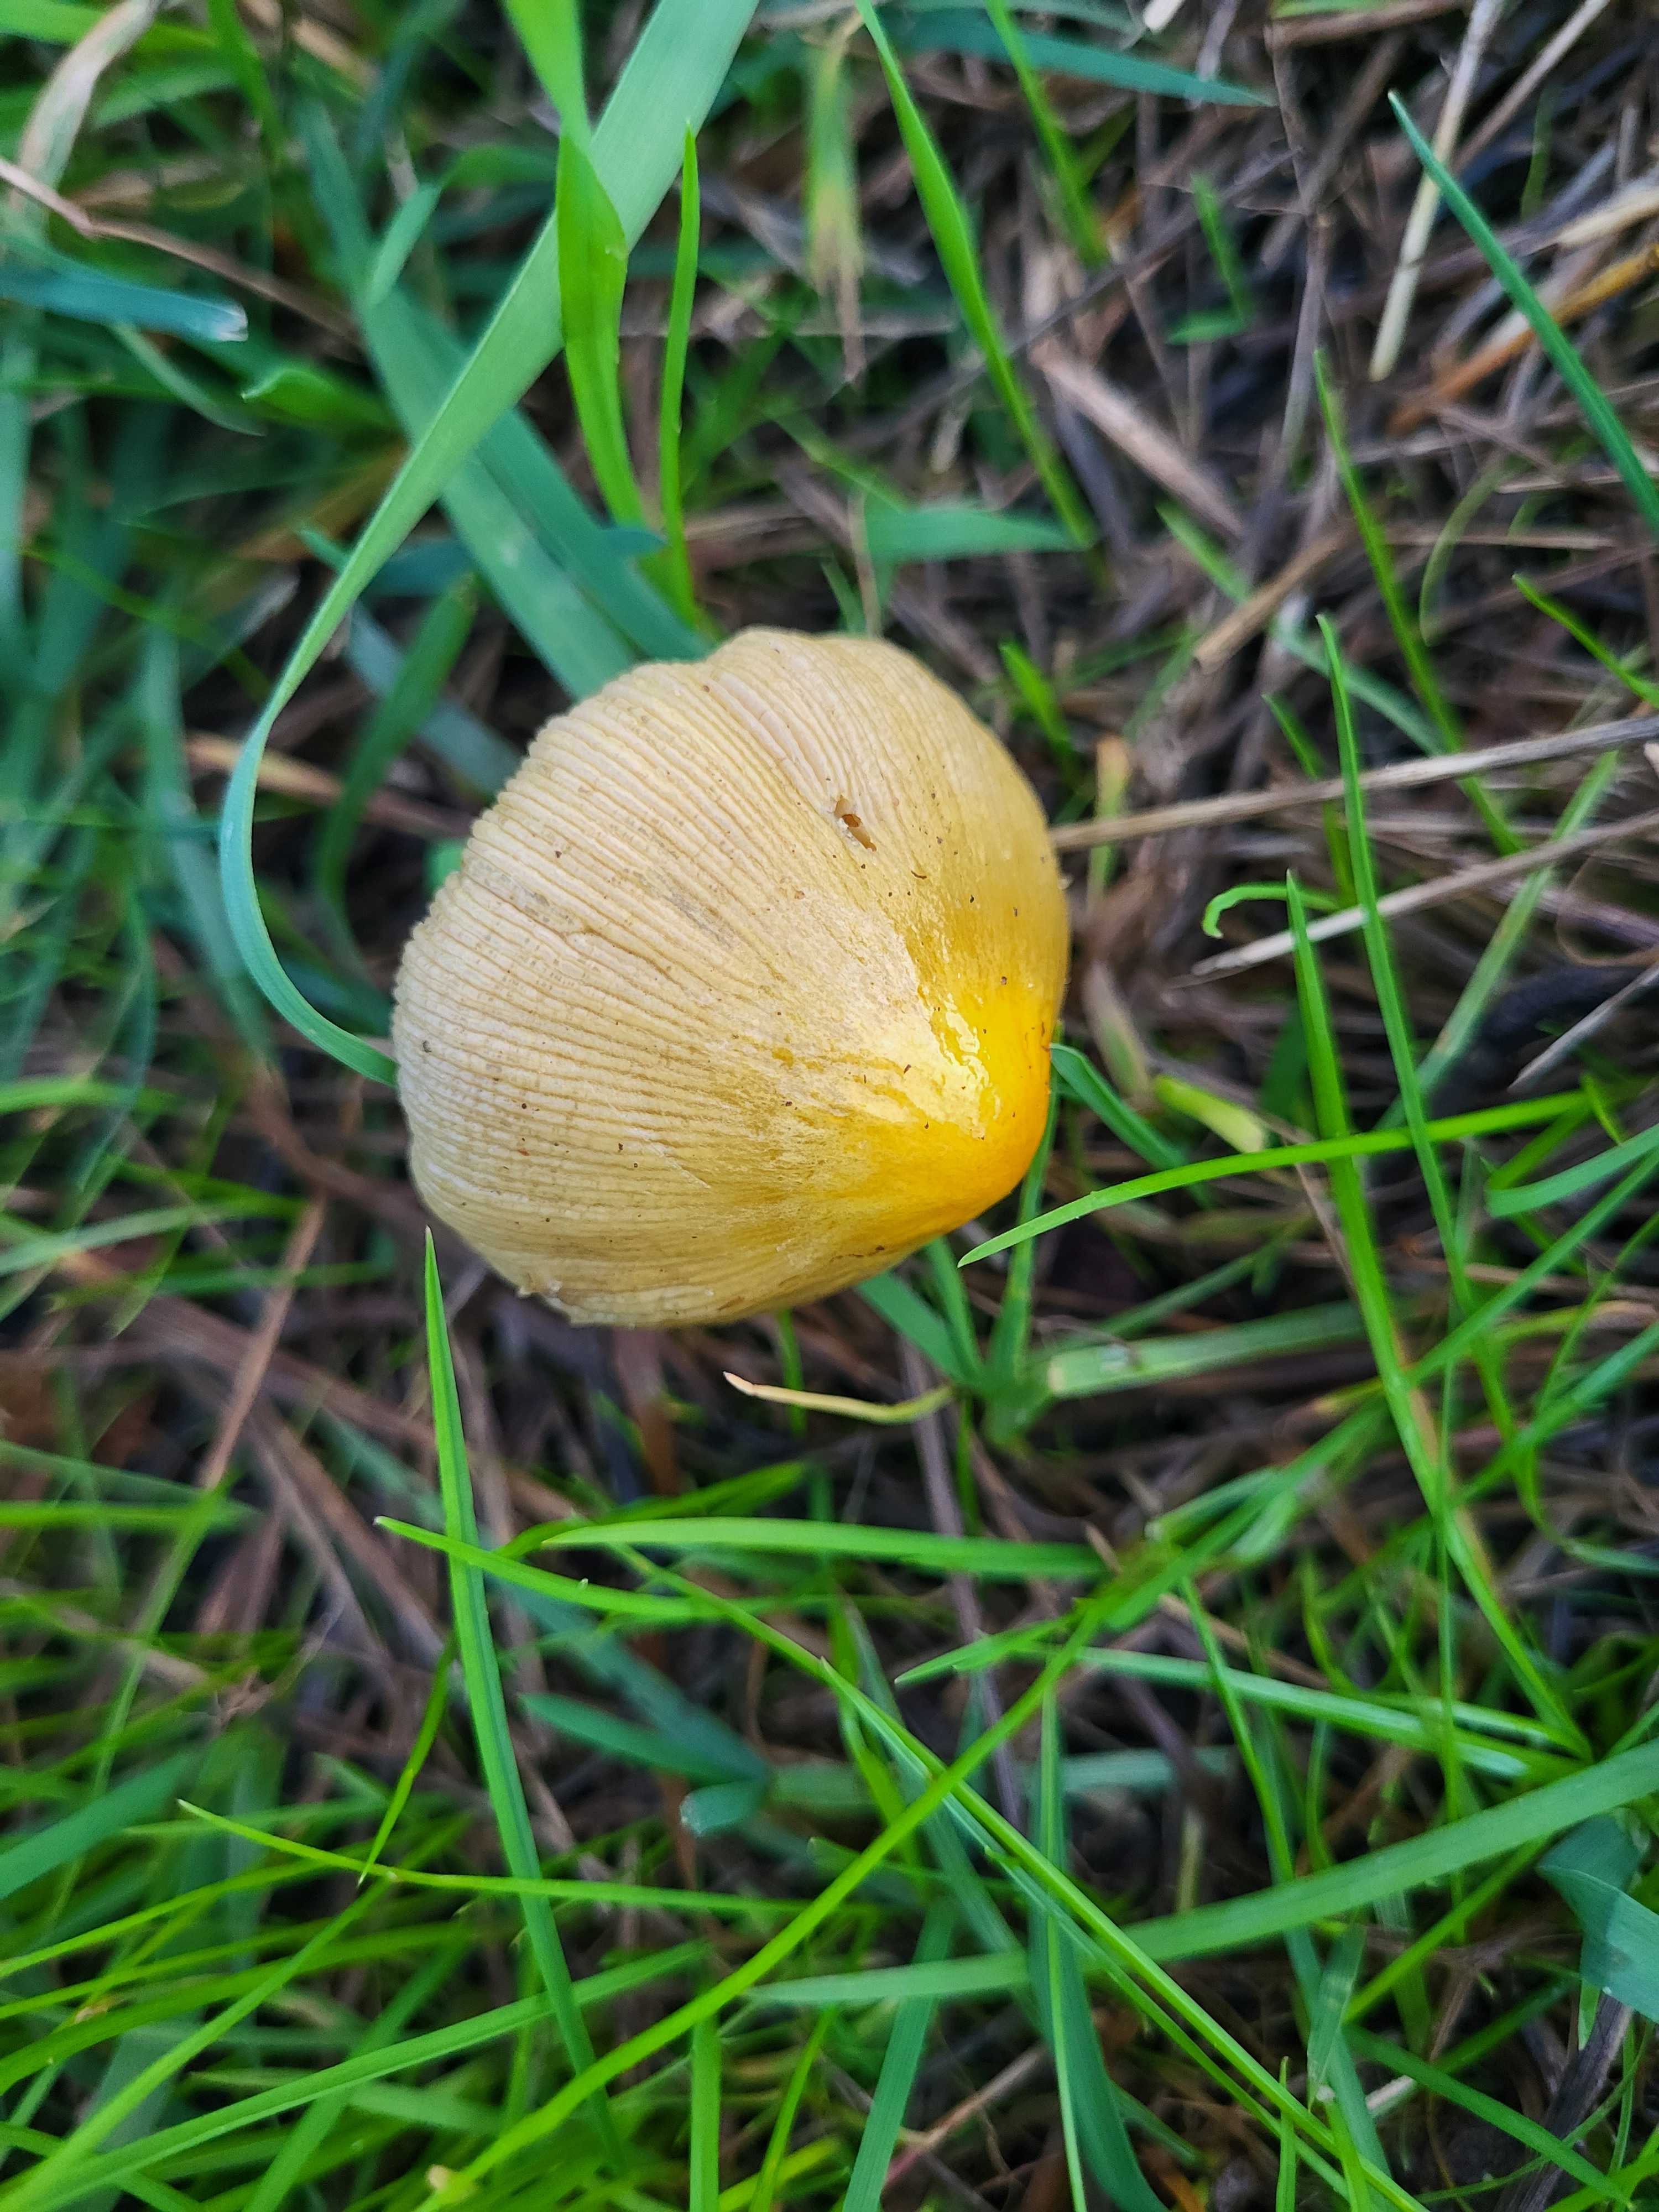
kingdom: Fungi
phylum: Basidiomycota
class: Agaricomycetes
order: Agaricales
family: Bolbitiaceae
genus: Bolbitius
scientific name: Bolbitius titubans
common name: almindelig gulhat
